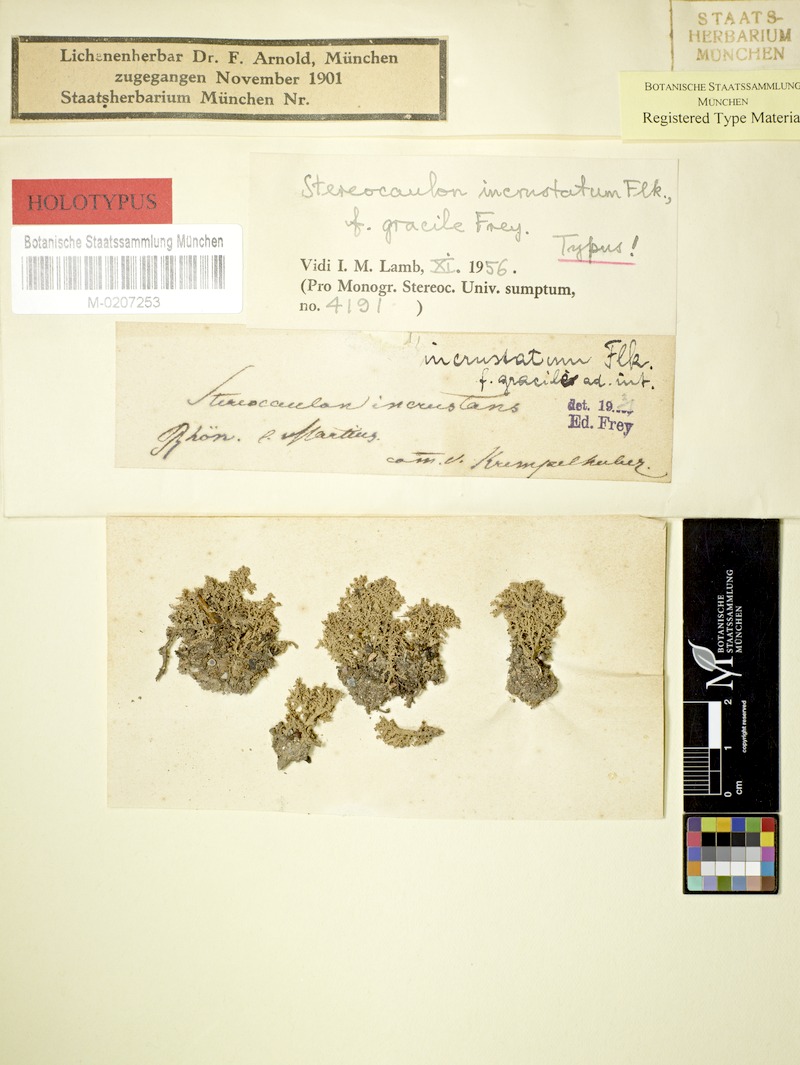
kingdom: Fungi
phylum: Ascomycota
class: Lecanoromycetes
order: Lecanorales
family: Stereocaulaceae
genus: Stereocaulon
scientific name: Stereocaulon incrustatum
